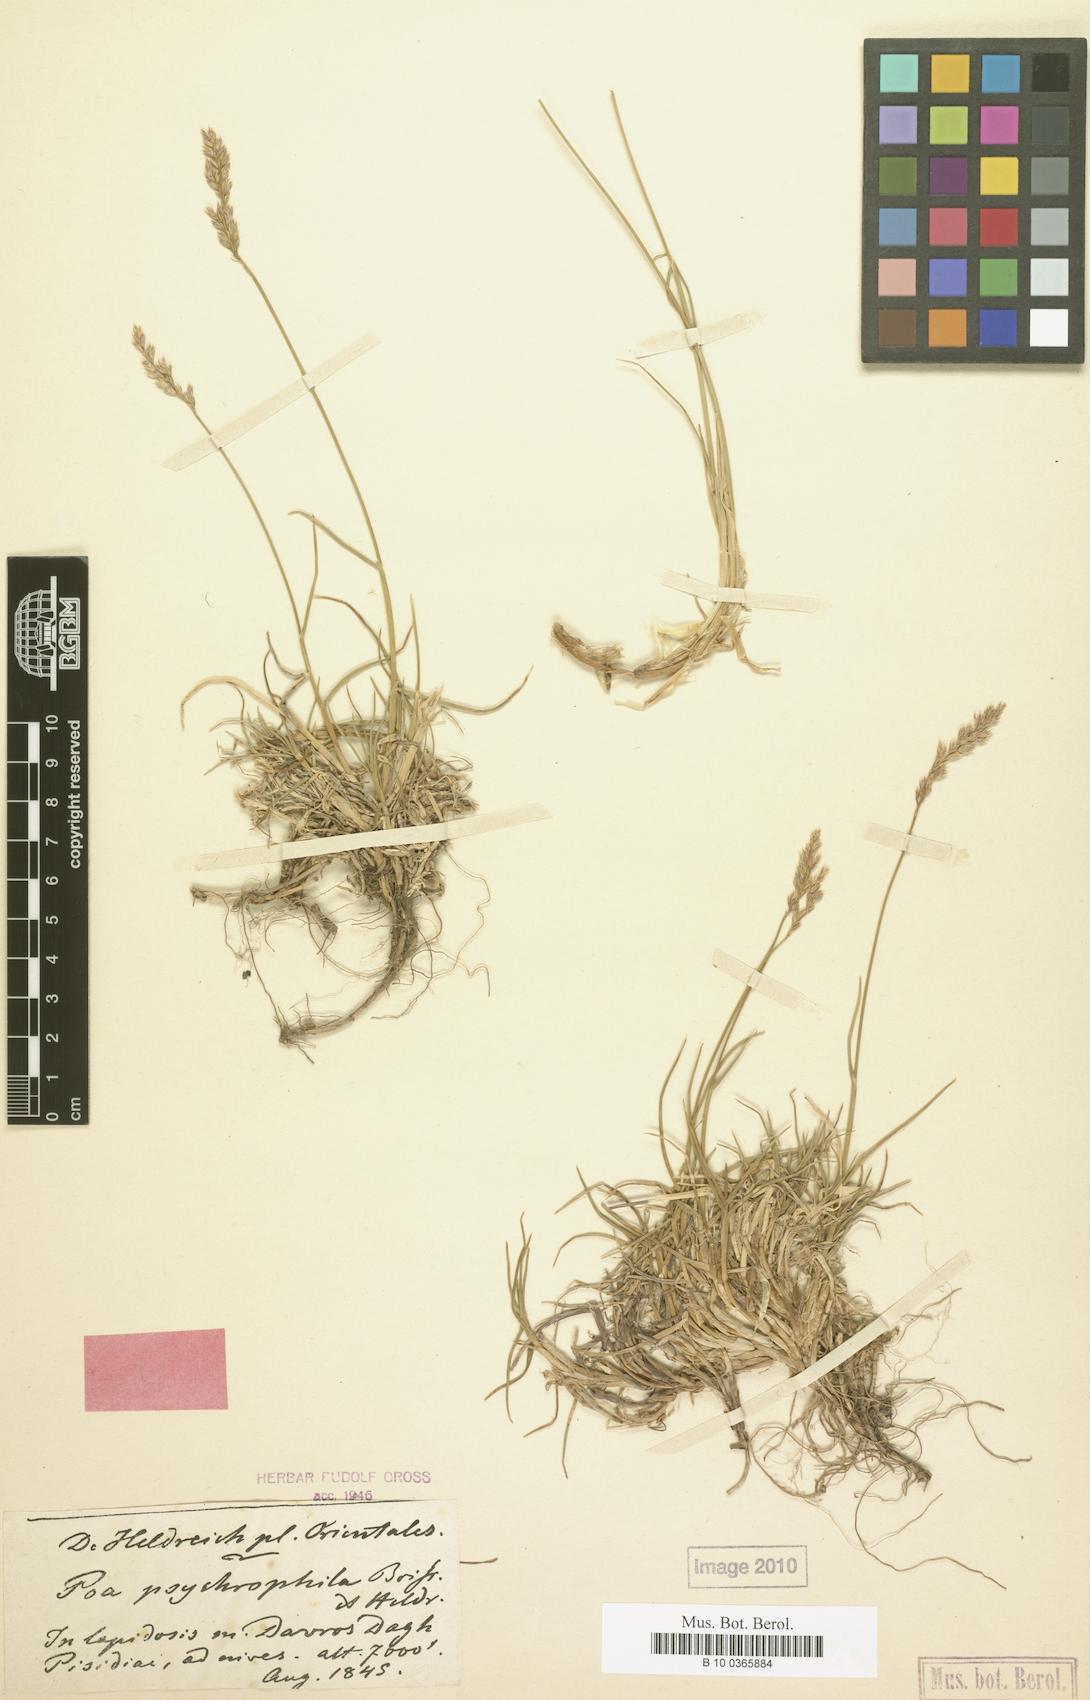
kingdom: Plantae
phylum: Tracheophyta
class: Liliopsida
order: Poales
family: Poaceae
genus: Poa
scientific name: Poa cenisia
